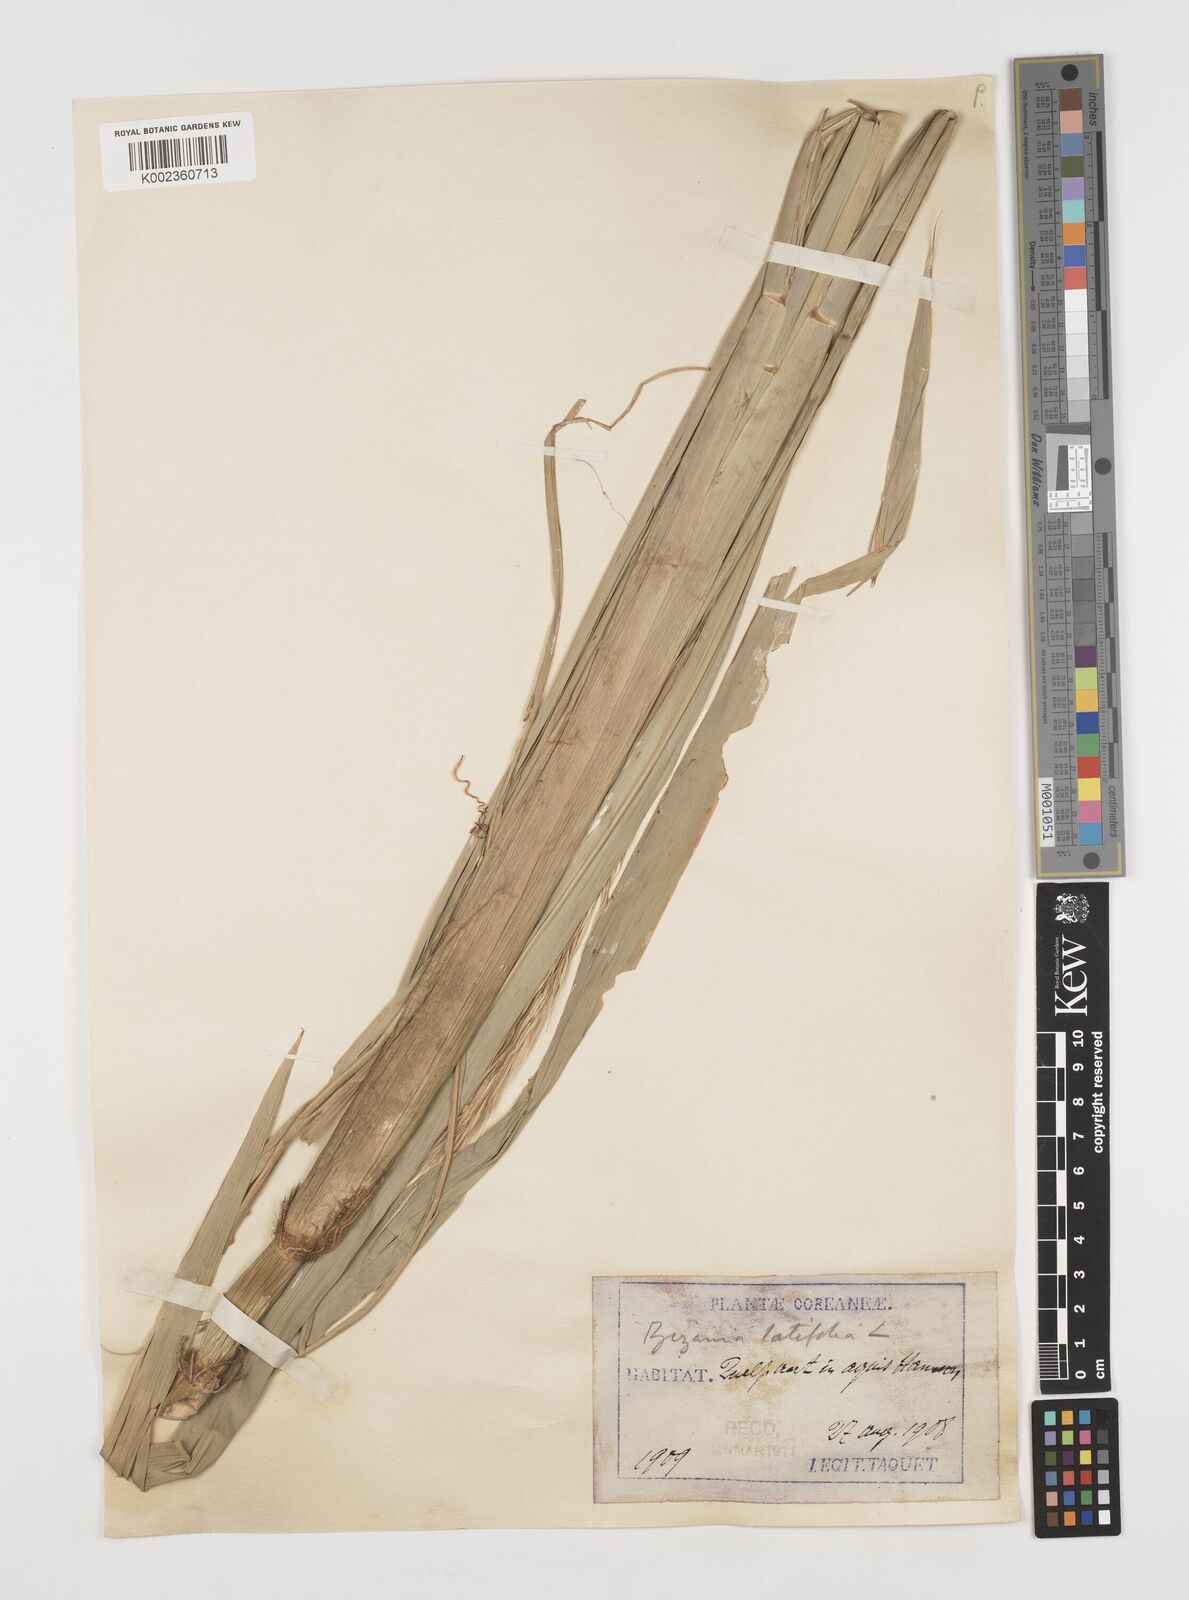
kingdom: Plantae
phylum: Tracheophyta
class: Liliopsida
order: Poales
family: Poaceae
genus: Zizania
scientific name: Zizania latifolia
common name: Manchurian wildrice
